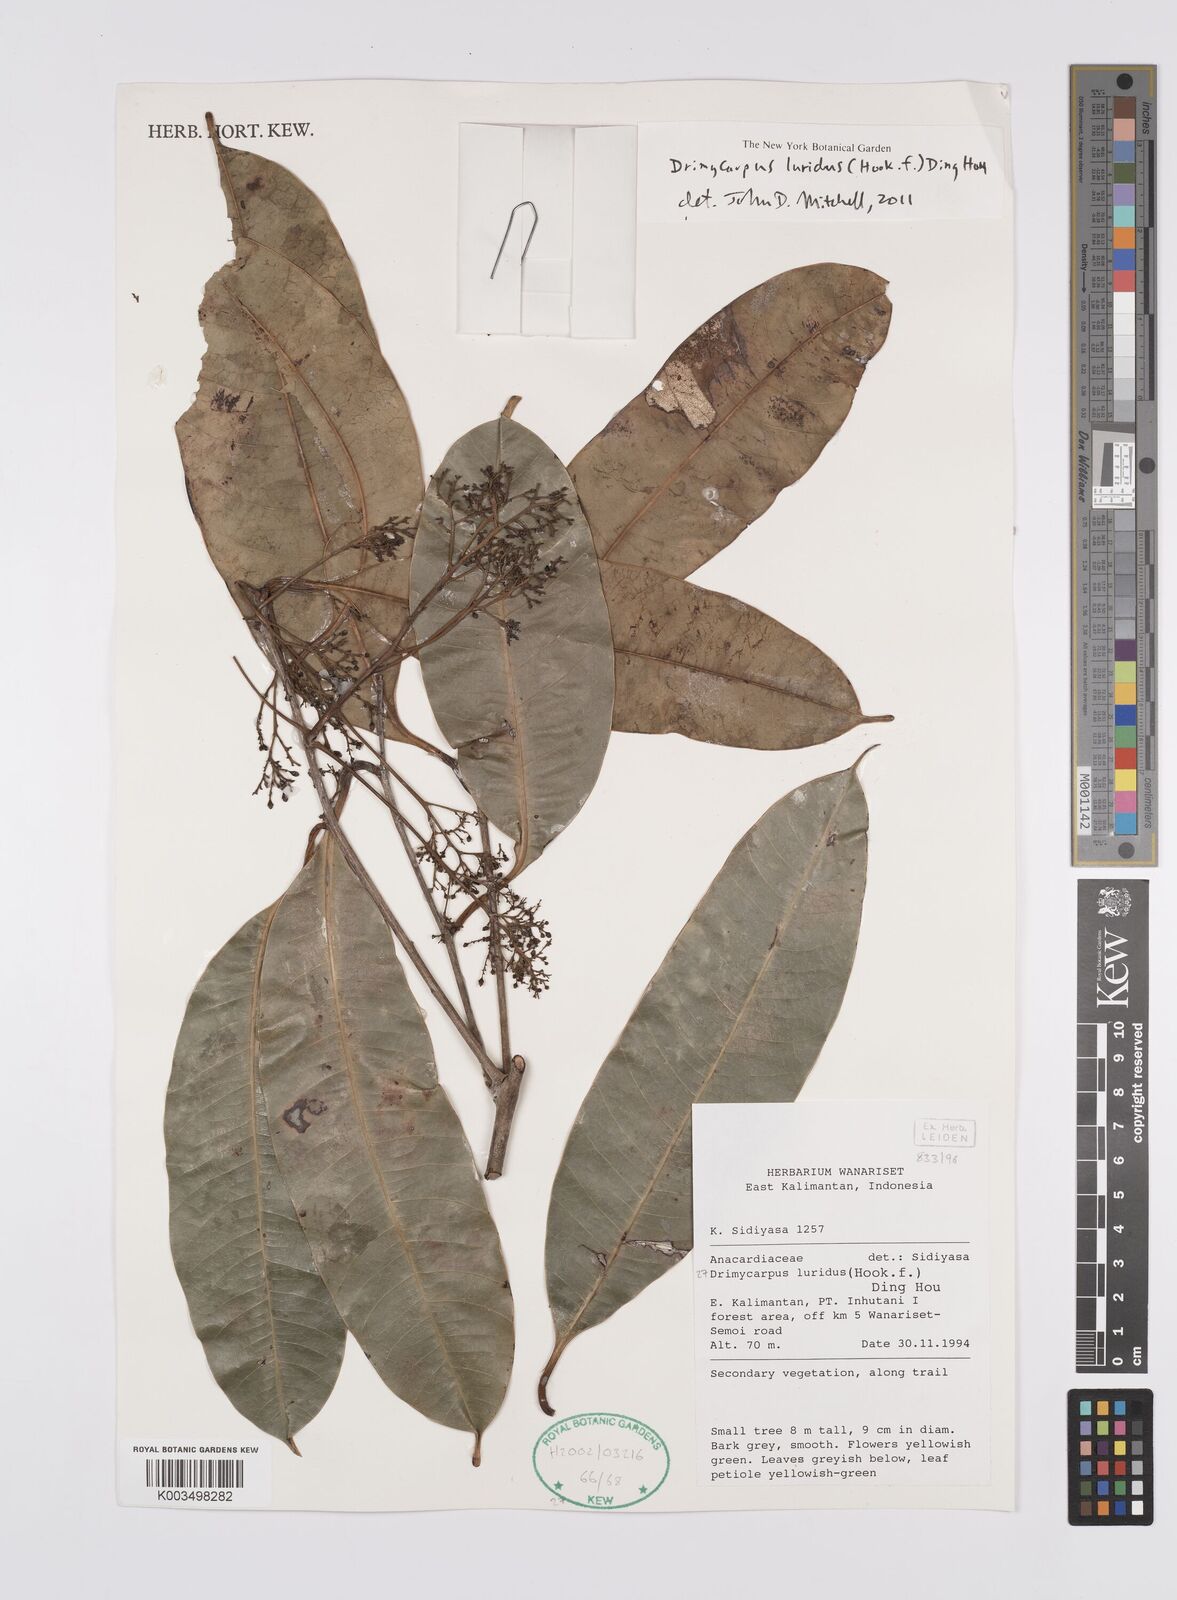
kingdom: Plantae
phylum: Tracheophyta
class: Magnoliopsida
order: Sapindales
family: Anacardiaceae
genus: Drimycarpus
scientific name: Drimycarpus luridus
